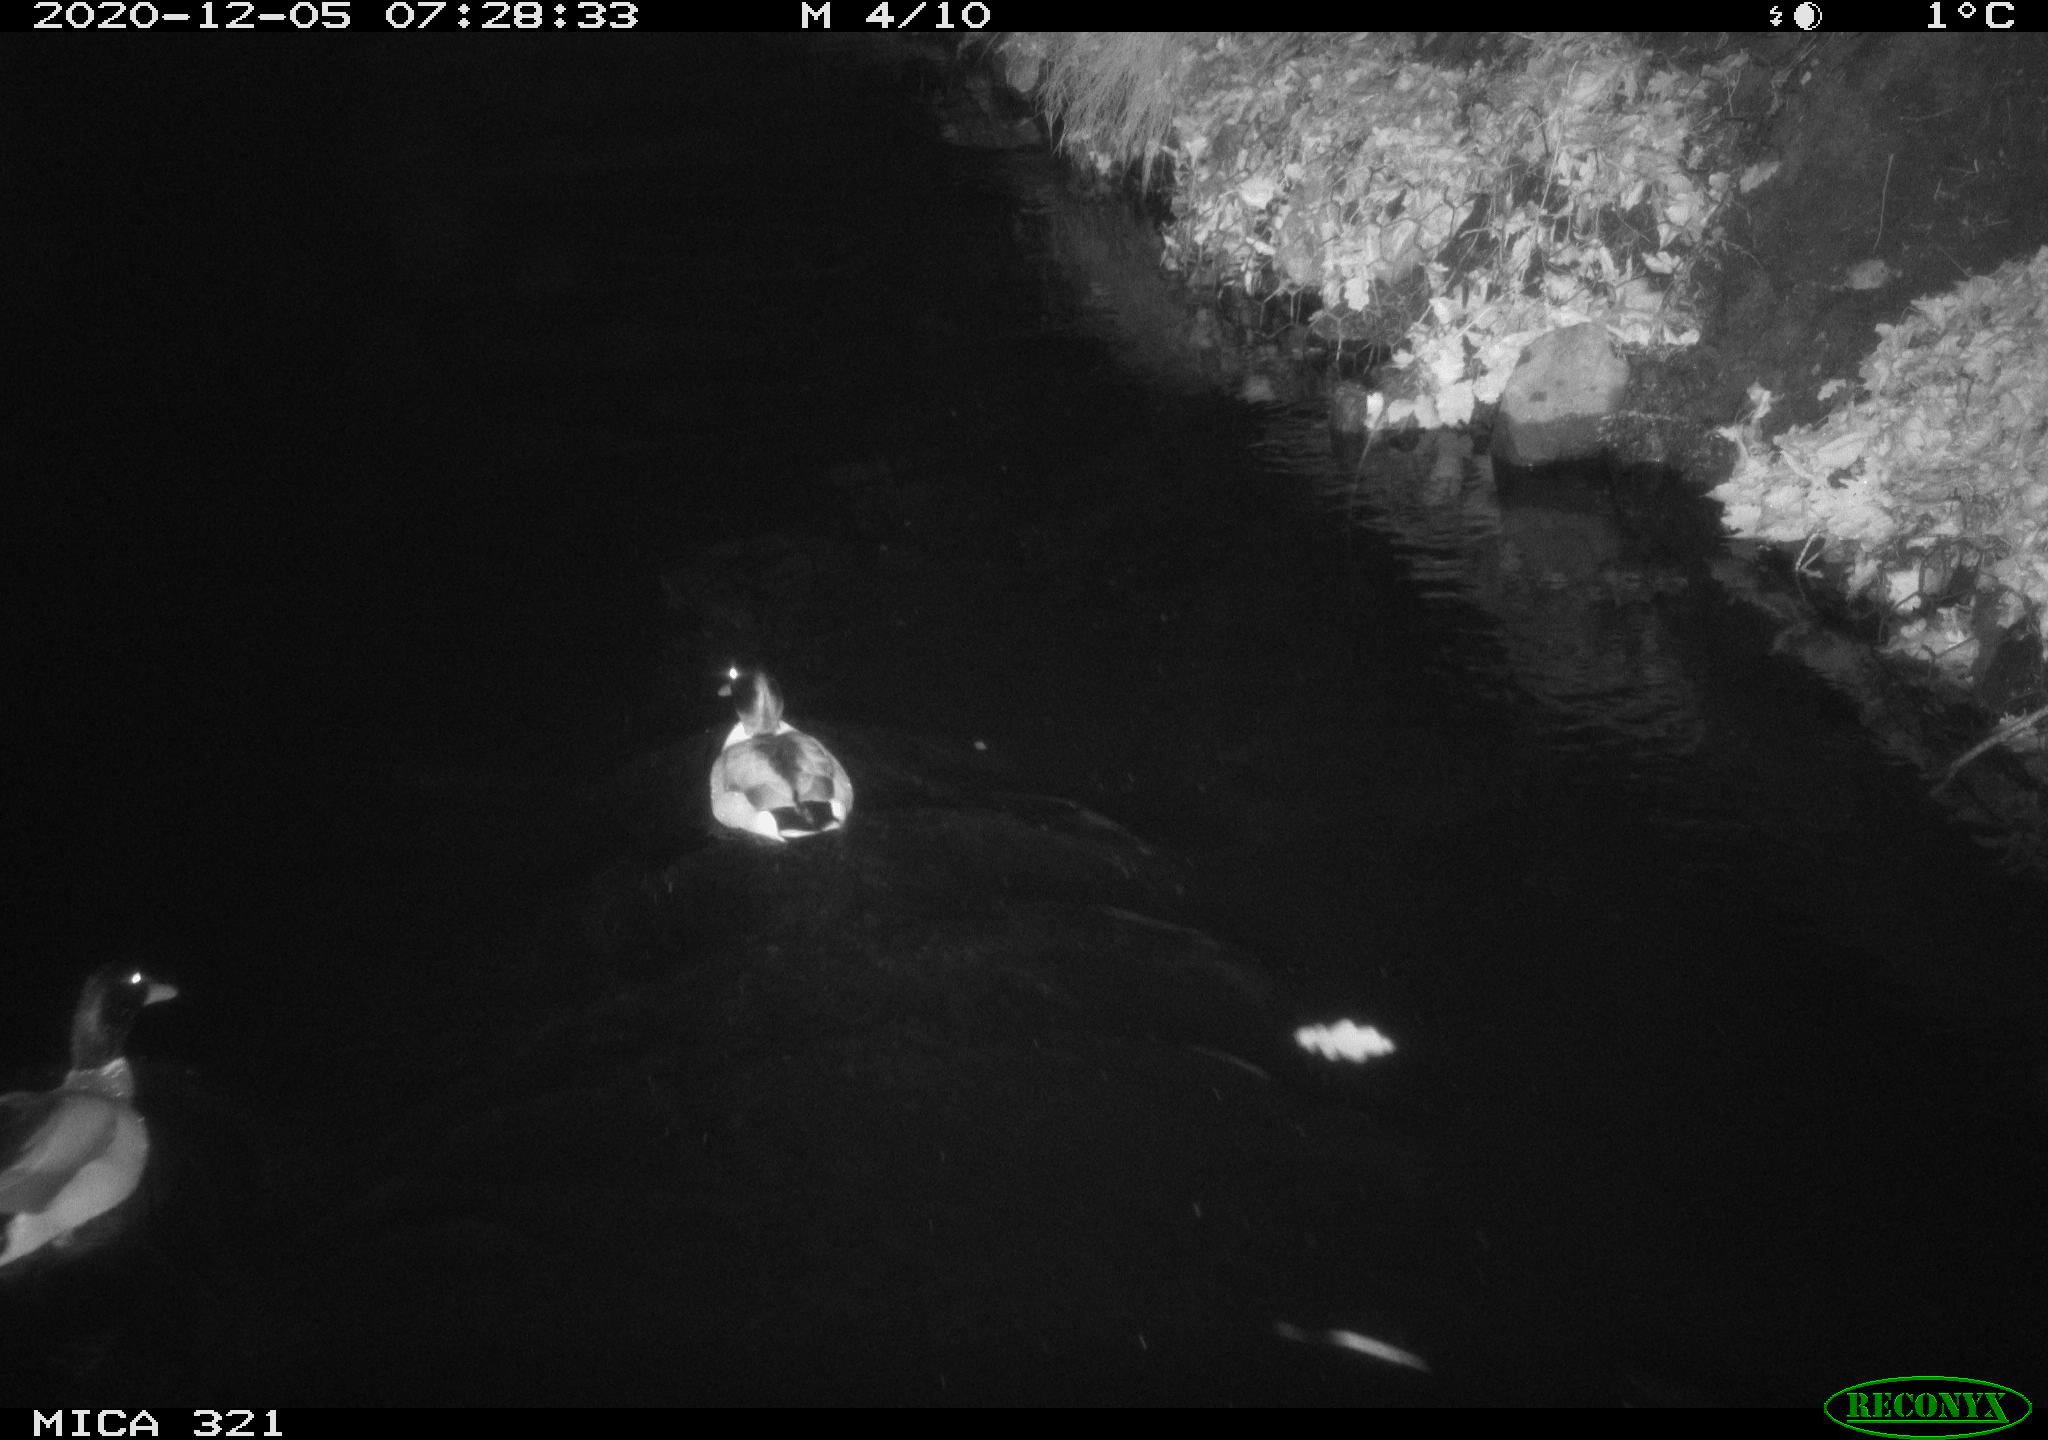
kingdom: Animalia
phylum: Chordata
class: Aves
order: Anseriformes
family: Anatidae
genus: Anas
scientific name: Anas platyrhynchos
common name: Mallard
